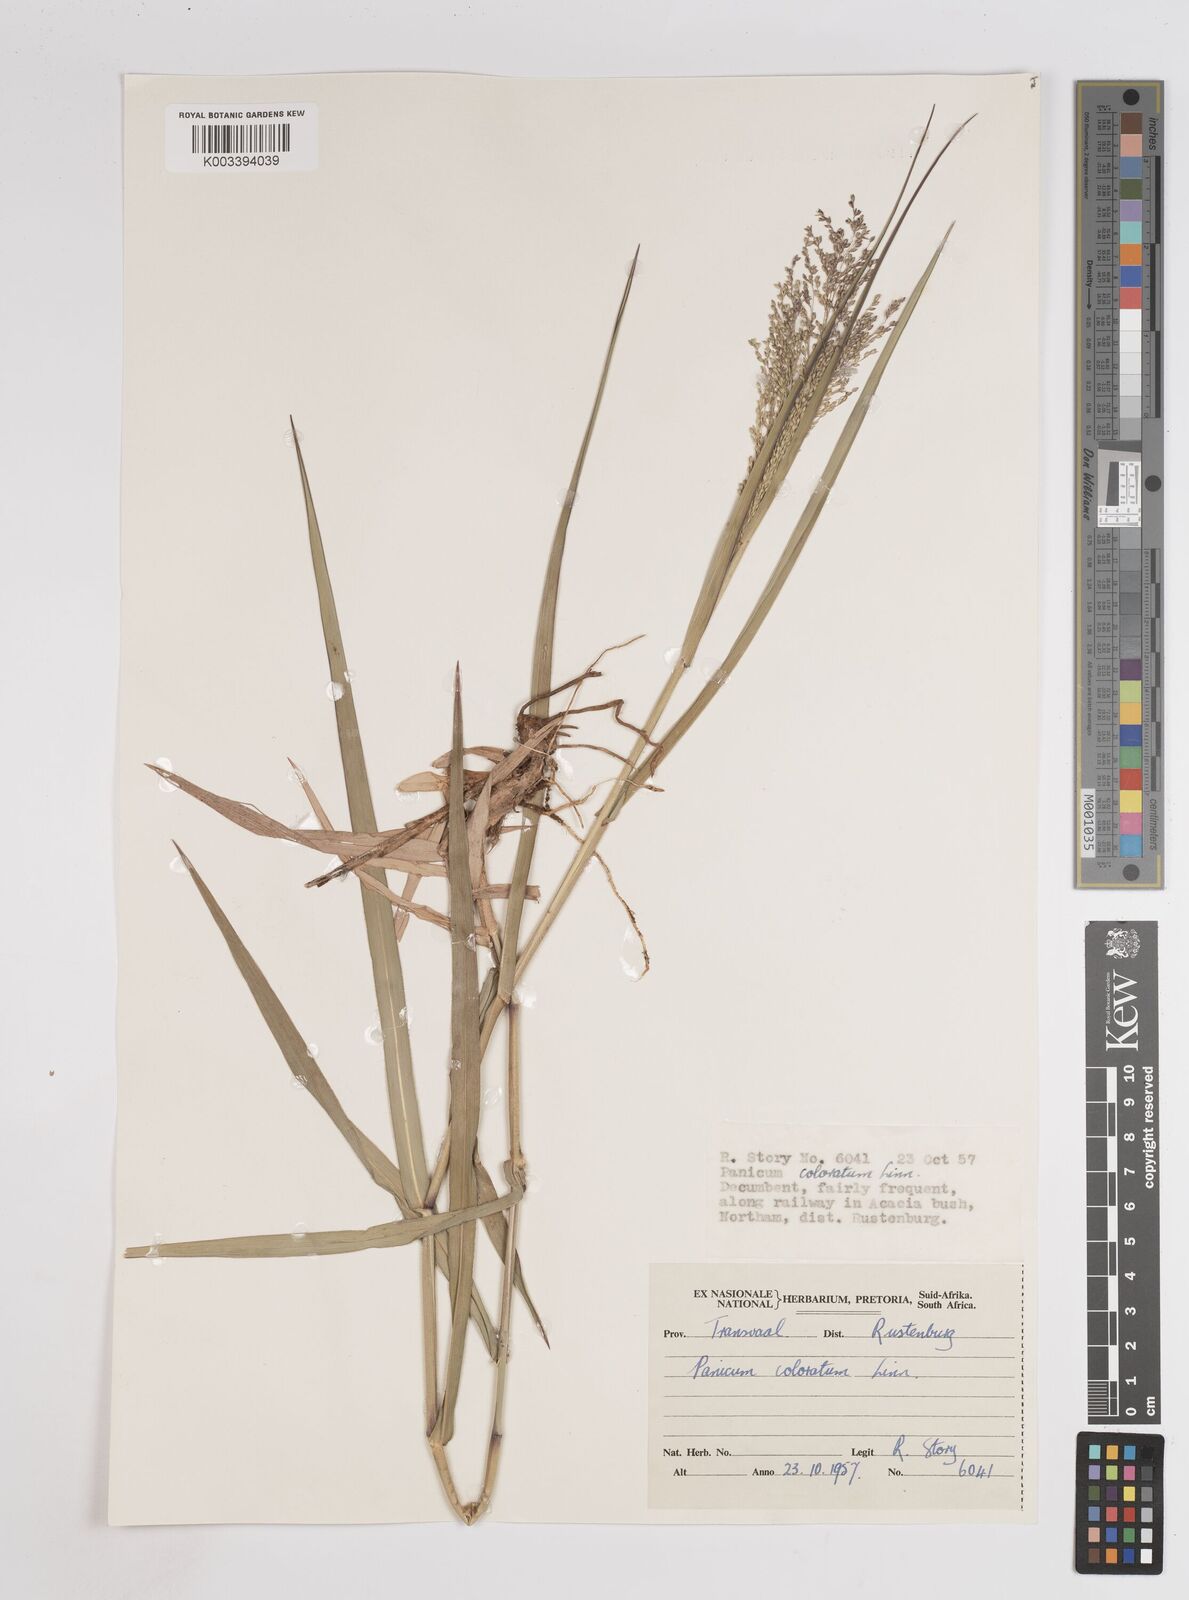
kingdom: Plantae
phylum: Tracheophyta
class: Liliopsida
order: Poales
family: Poaceae
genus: Panicum
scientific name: Panicum coloratum
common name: Kleingrass
